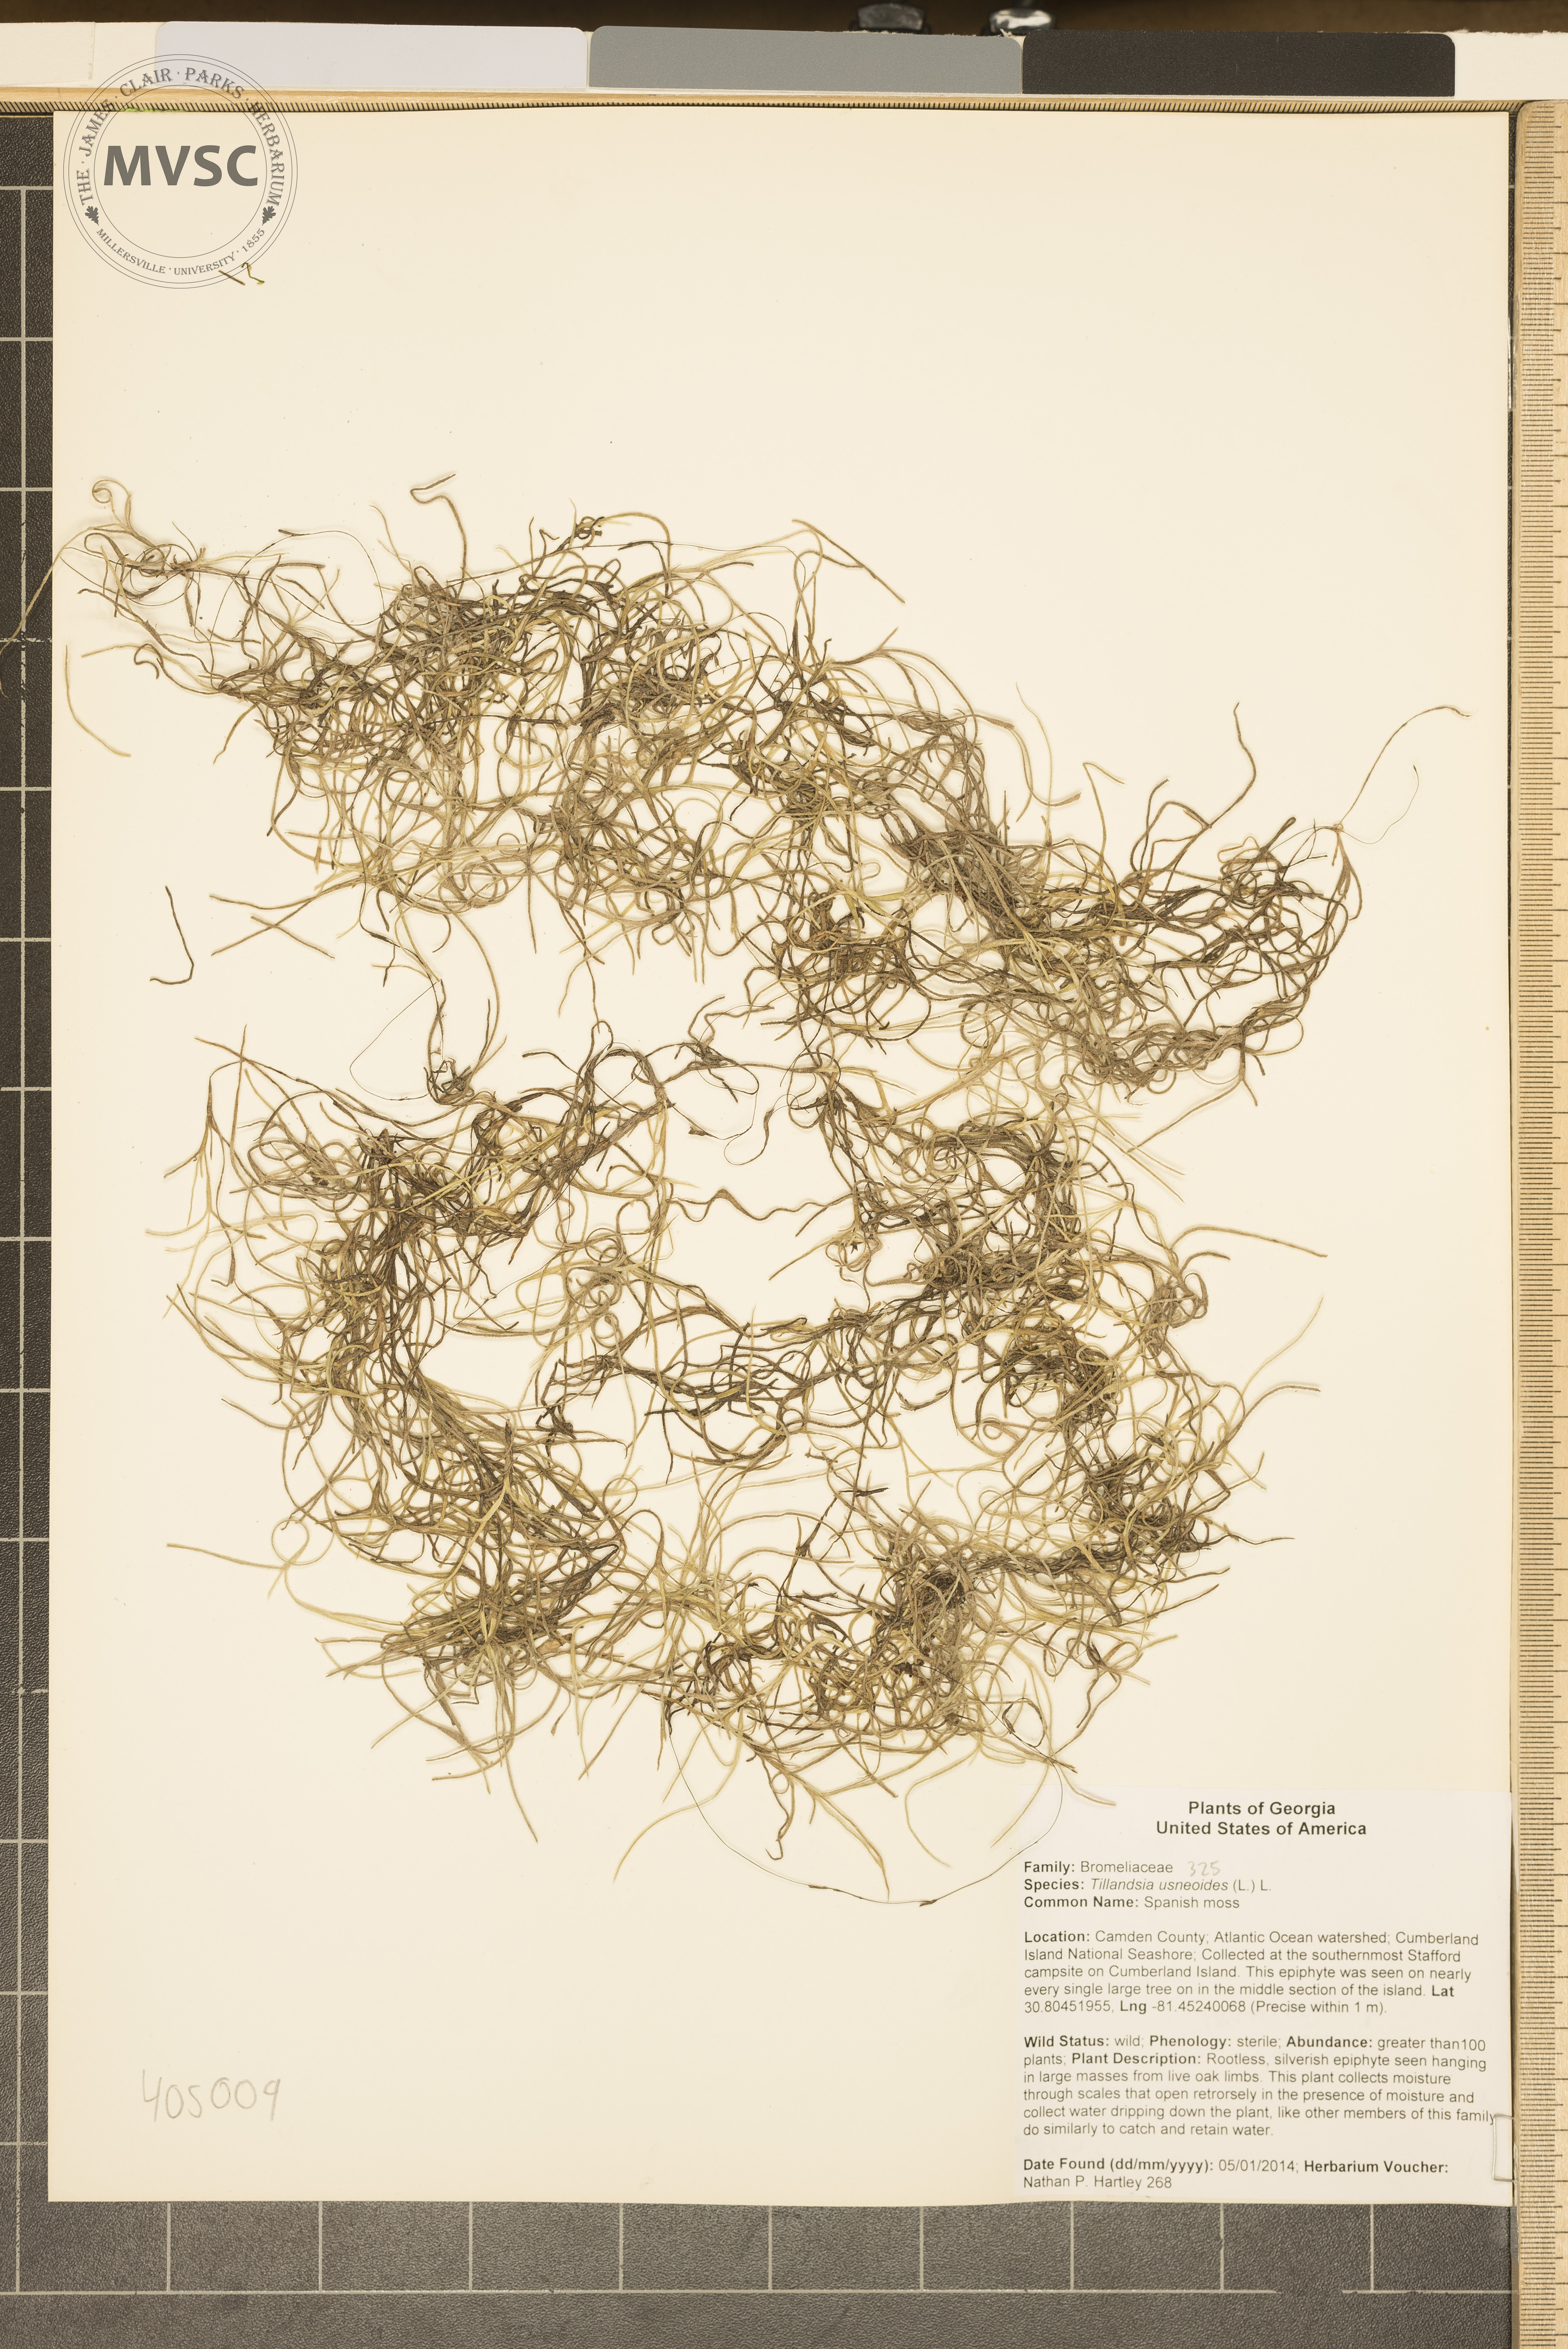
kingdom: Plantae
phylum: Tracheophyta
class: Liliopsida
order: Poales
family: Bromeliaceae
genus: Tillandsia
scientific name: Tillandsia usneoides
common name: spanish moss
